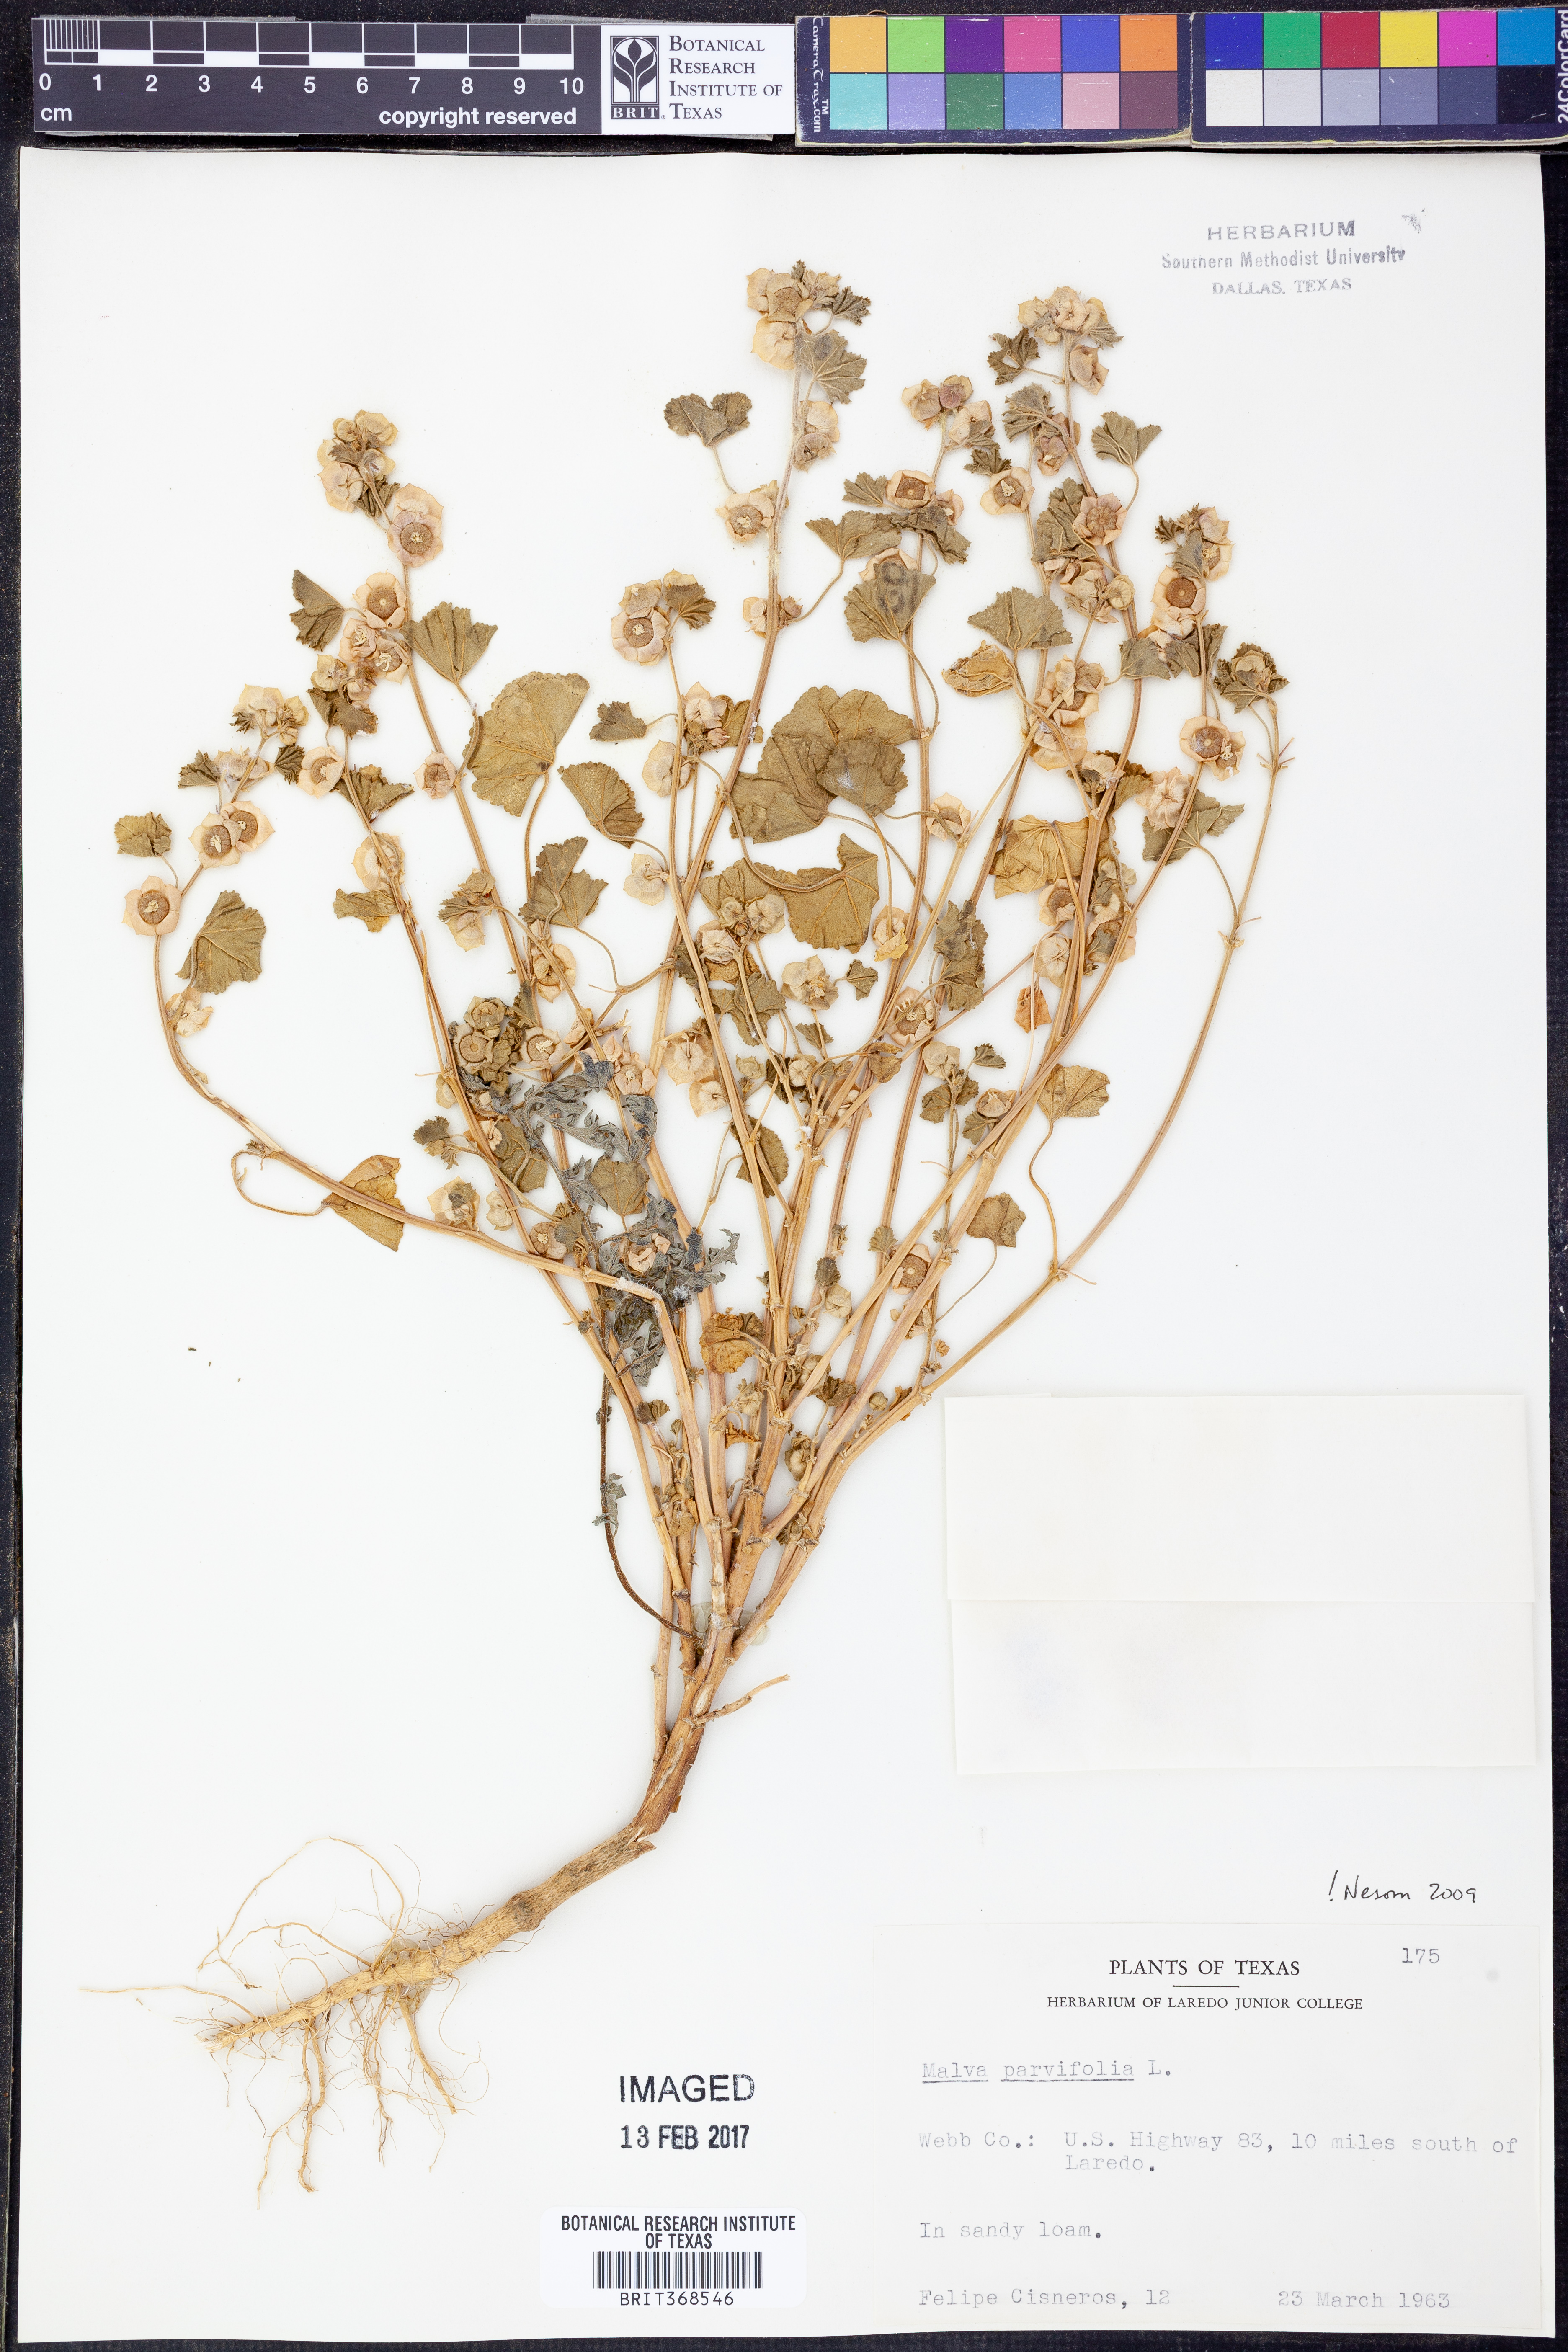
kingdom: Plantae
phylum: Tracheophyta
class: Magnoliopsida
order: Malvales
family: Malvaceae
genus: Malva
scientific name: Malva parviflora
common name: Least mallow
